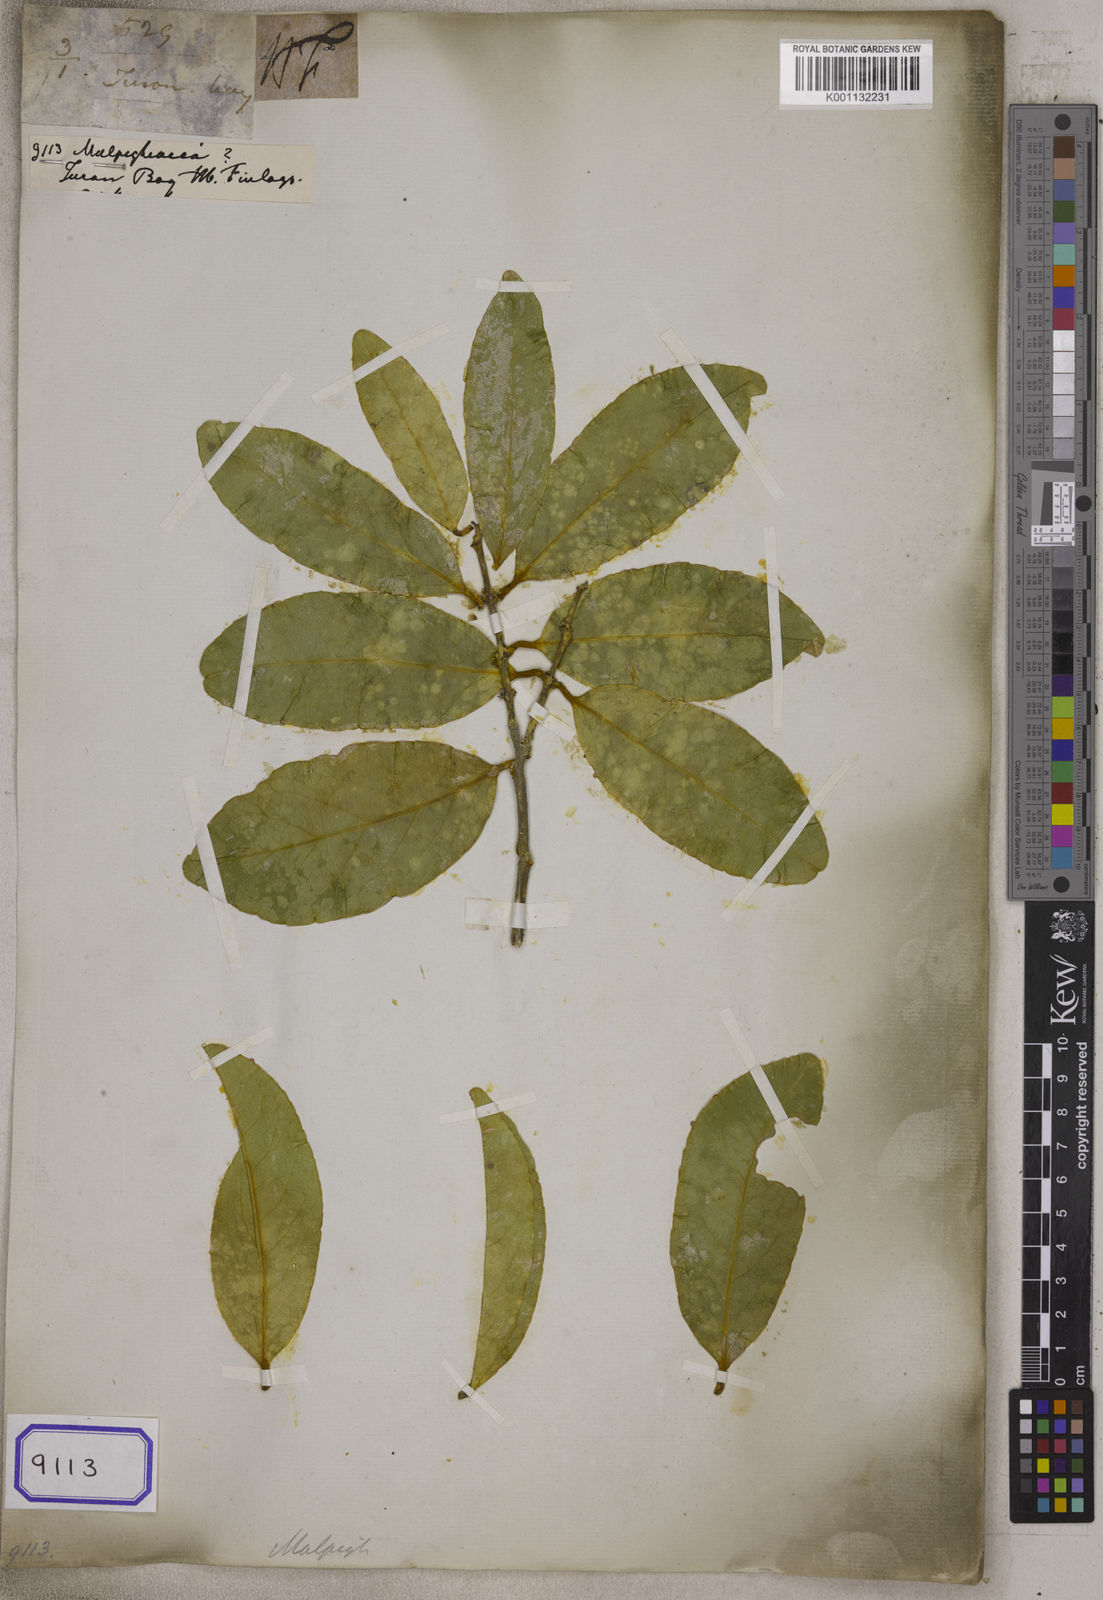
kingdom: Plantae
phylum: Tracheophyta
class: Magnoliopsida
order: Malpighiales
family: Malpighiaceae
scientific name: Malpighiaceae
